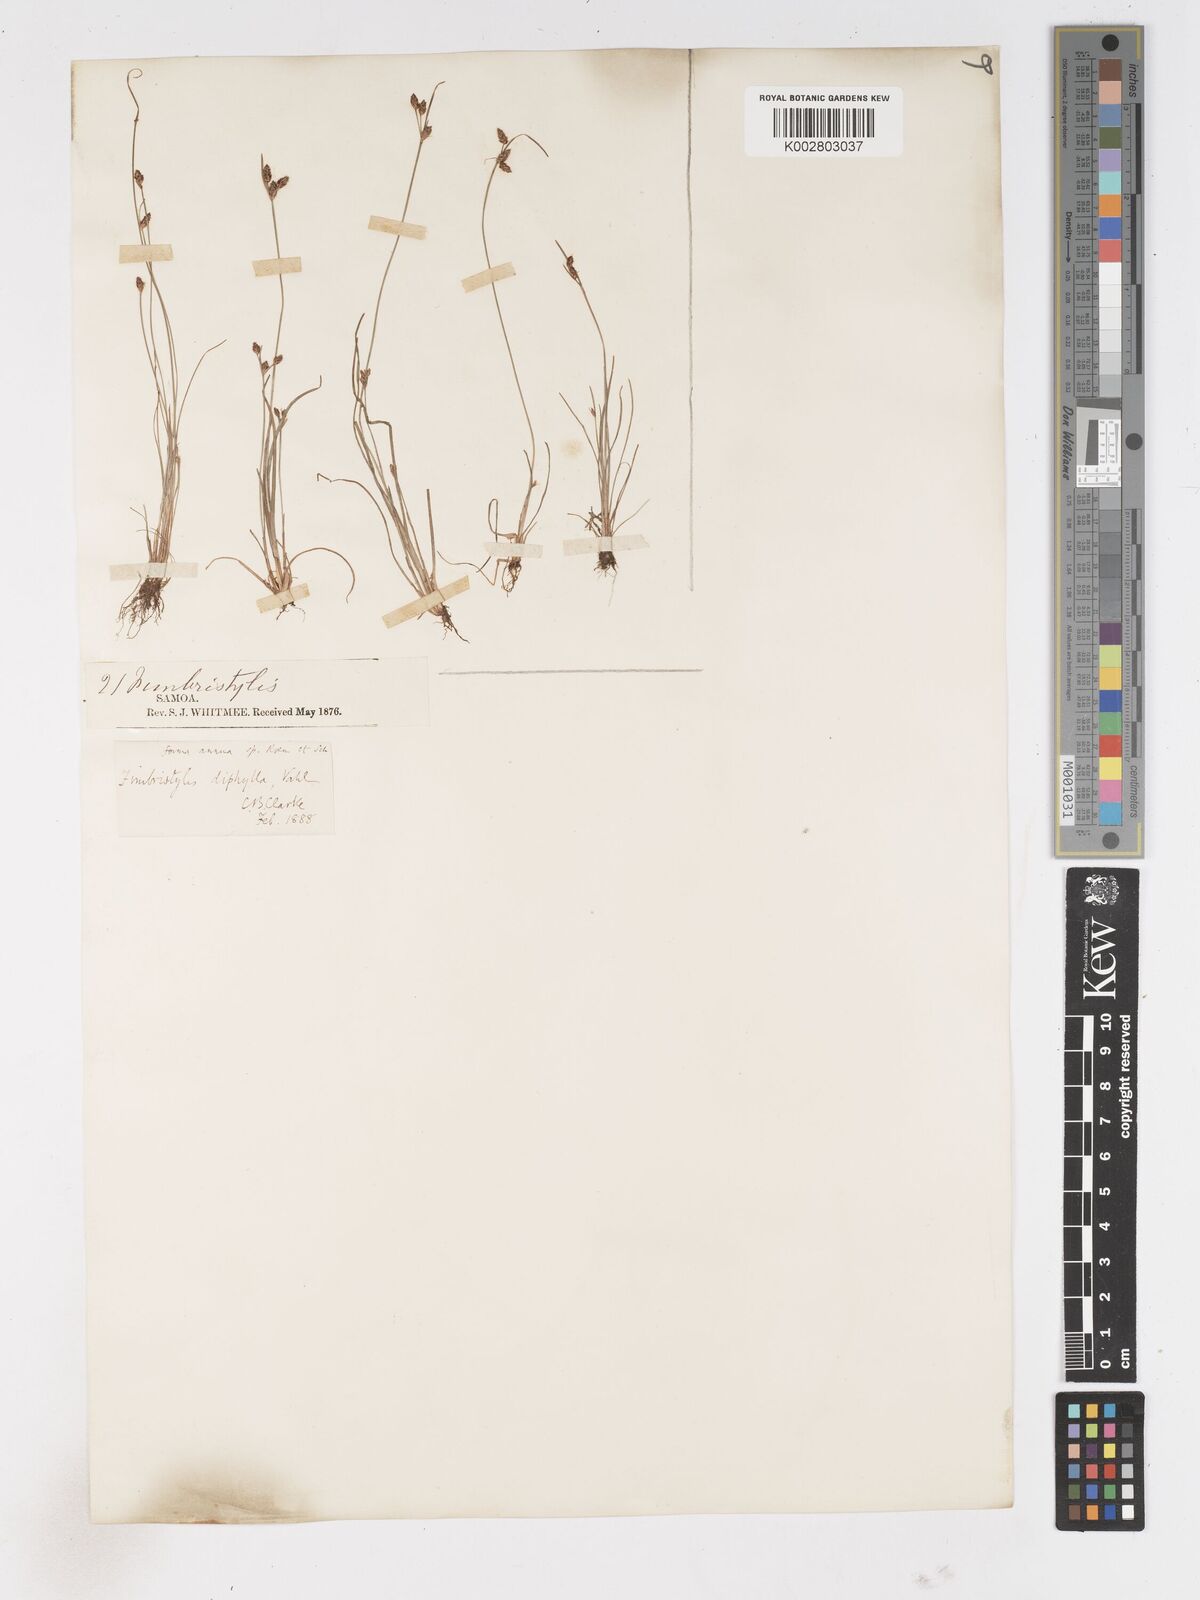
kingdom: Plantae
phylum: Tracheophyta
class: Liliopsida
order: Poales
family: Cyperaceae
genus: Fimbristylis
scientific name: Fimbristylis dichotoma
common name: Forked fimbry
